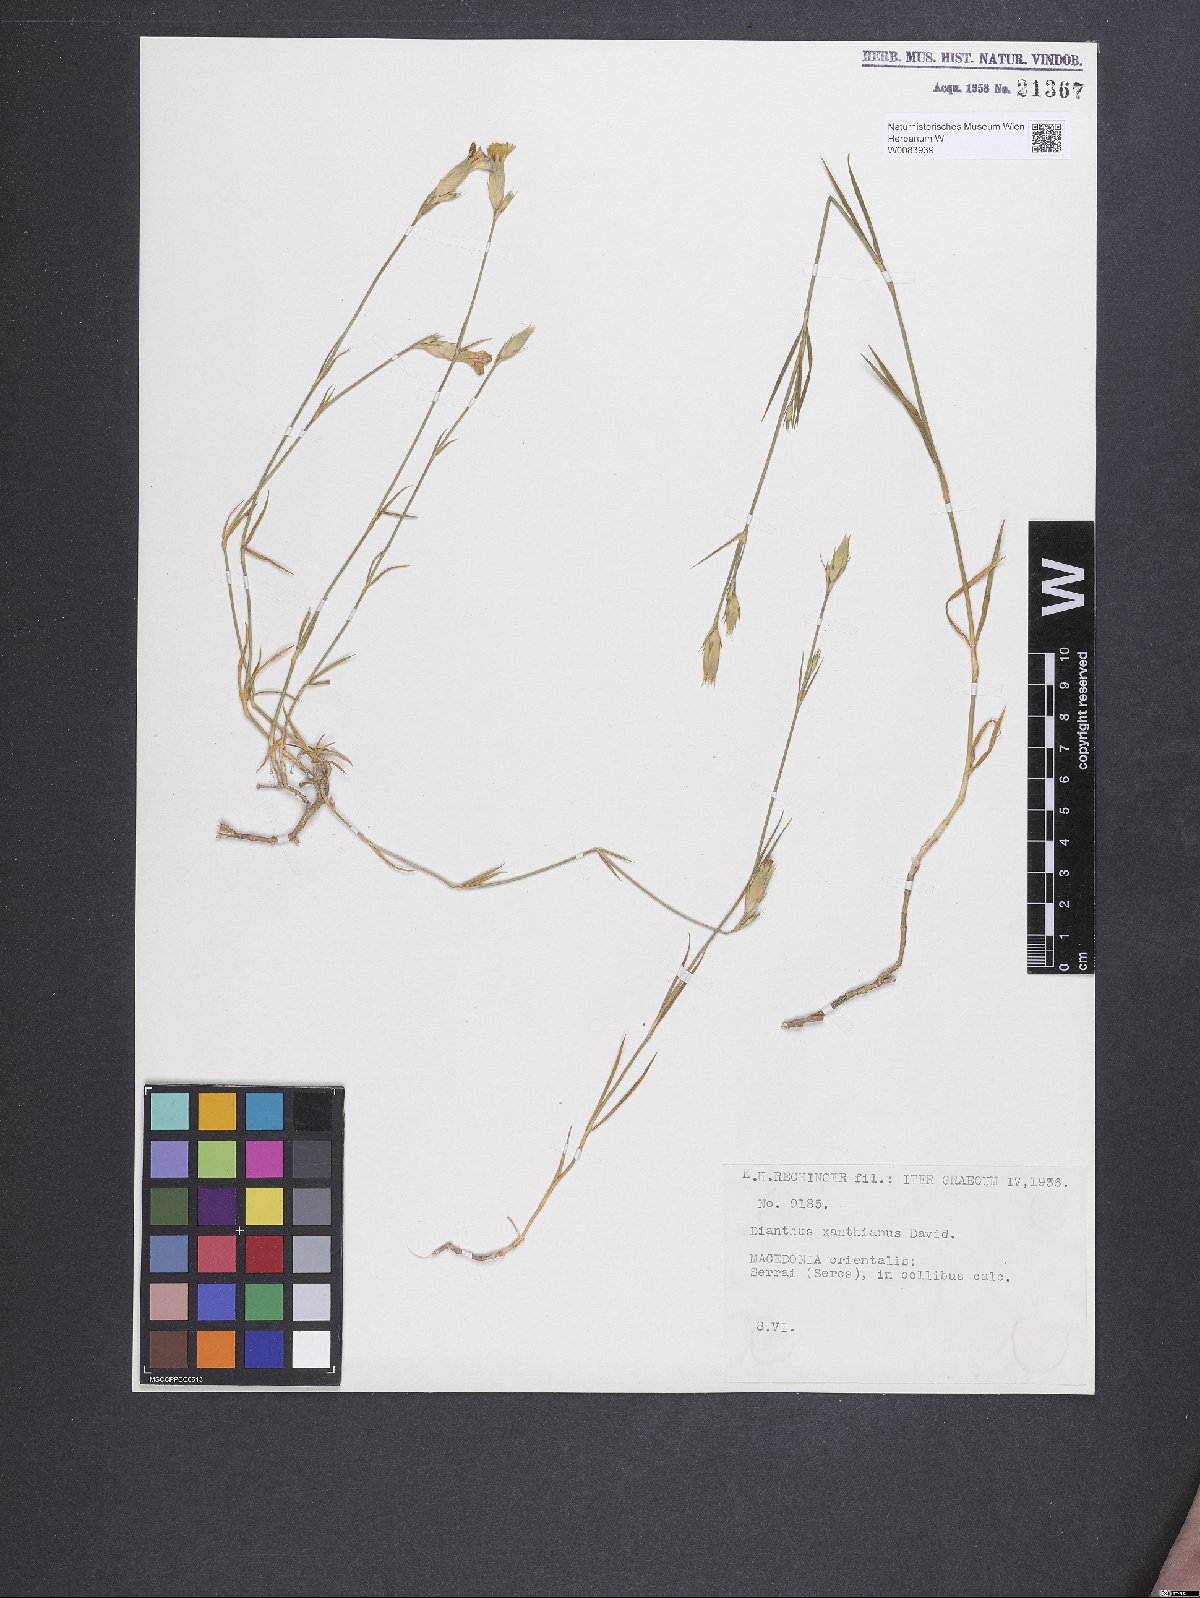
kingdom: Plantae
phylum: Tracheophyta
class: Magnoliopsida
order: Caryophyllales
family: Caryophyllaceae
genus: Dianthus
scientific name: Dianthus gracilis
